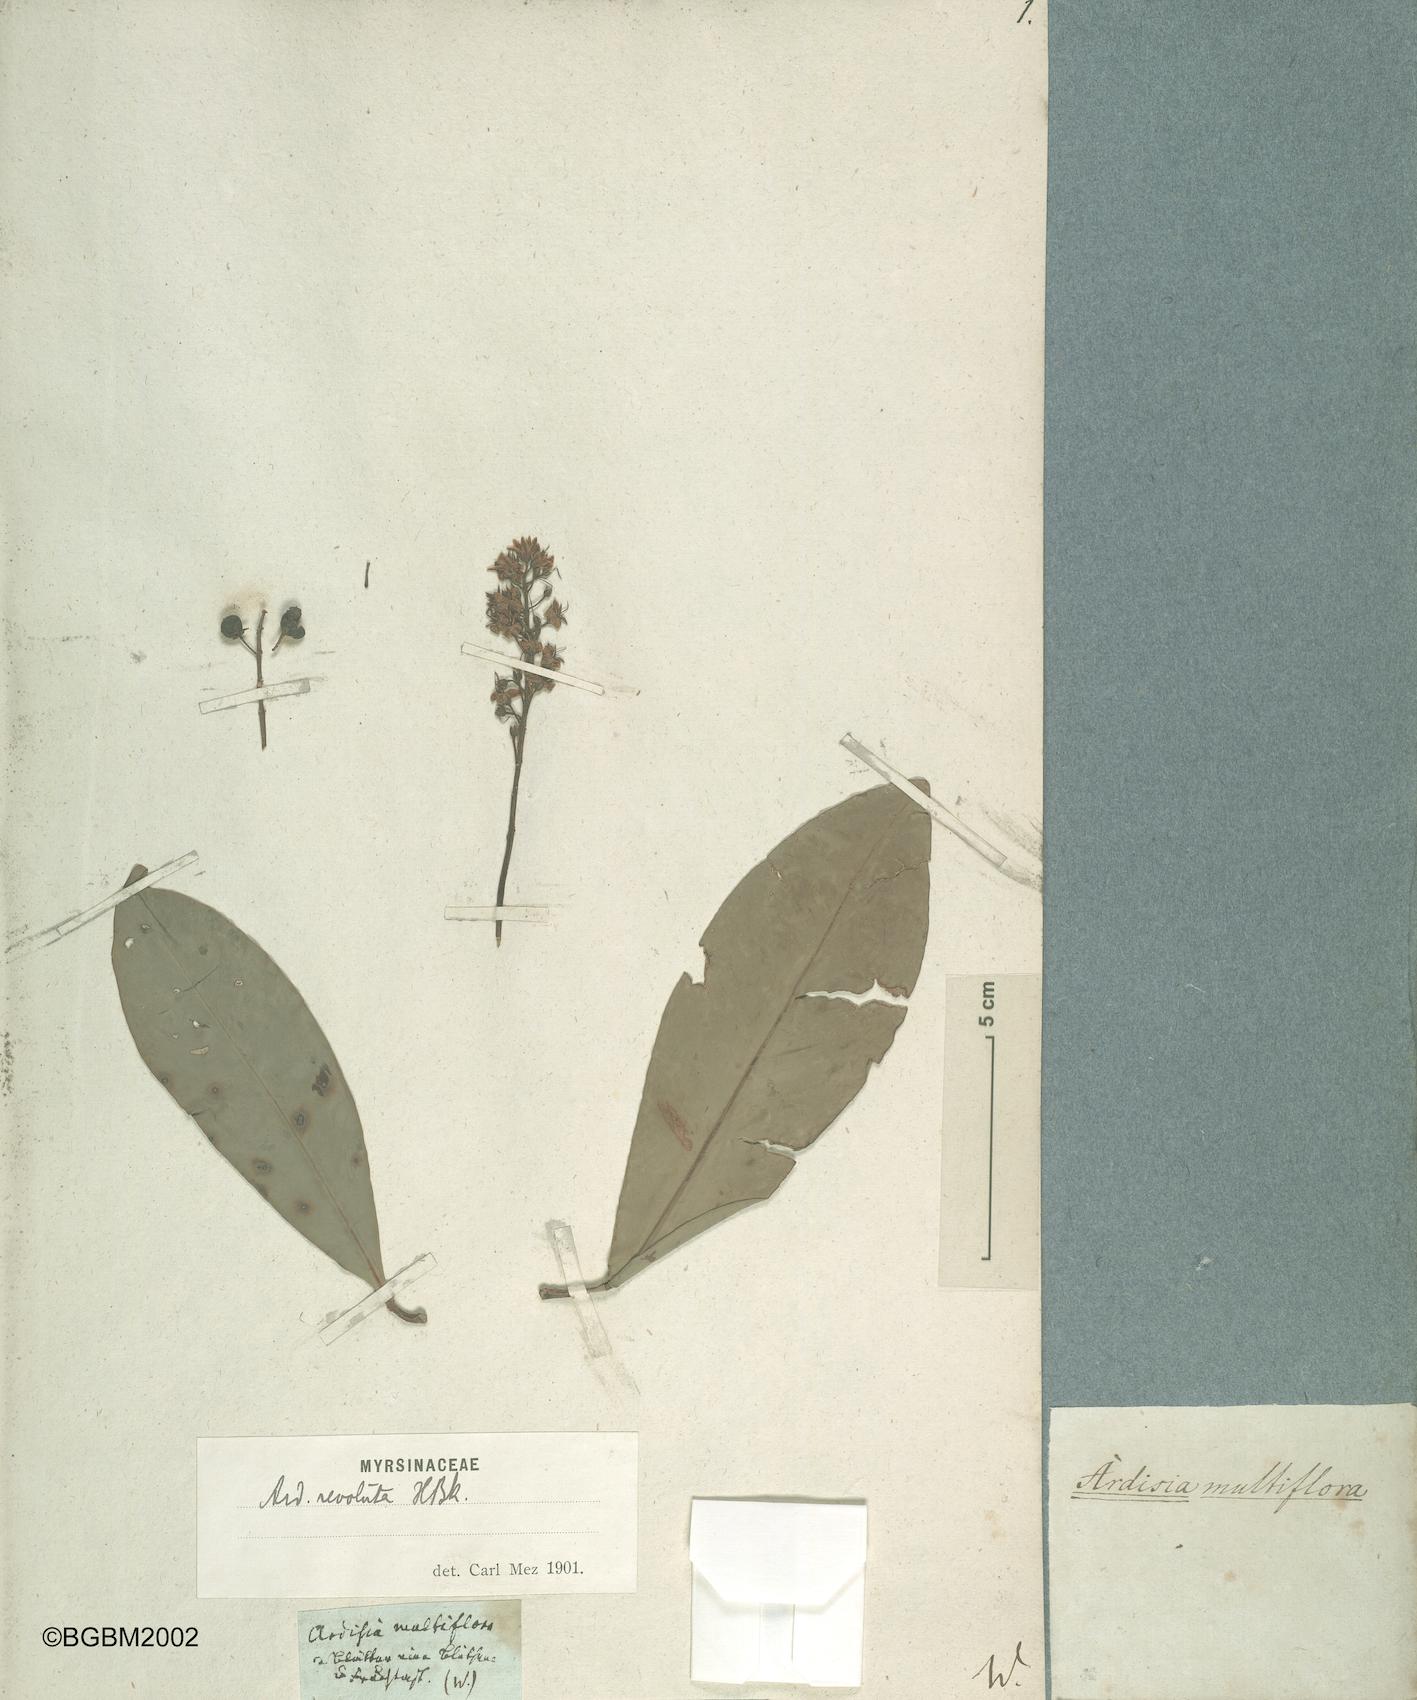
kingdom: Plantae
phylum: Tracheophyta
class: Magnoliopsida
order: Ericales
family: Primulaceae
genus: Ardisia
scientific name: Ardisia revoluta
